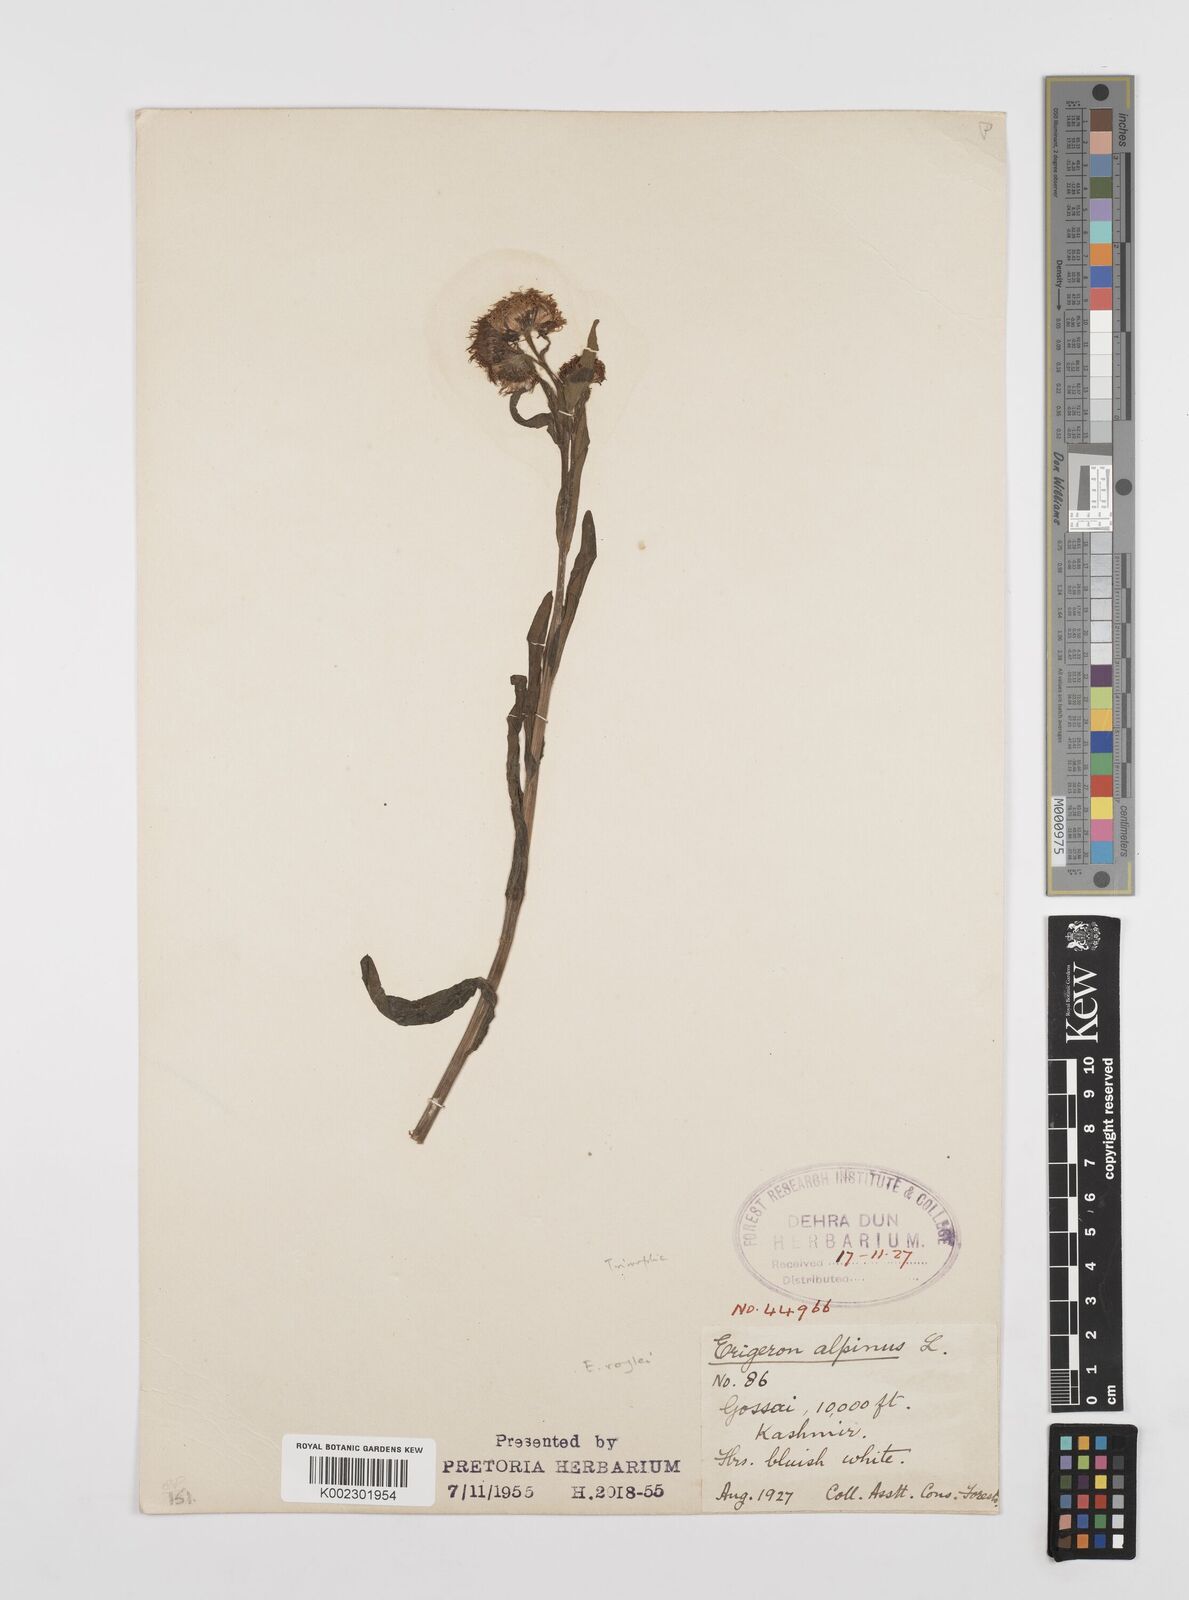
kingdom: Plantae
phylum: Tracheophyta
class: Magnoliopsida
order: Asterales
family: Asteraceae
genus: Erigeron
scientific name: Erigeron alpinus
